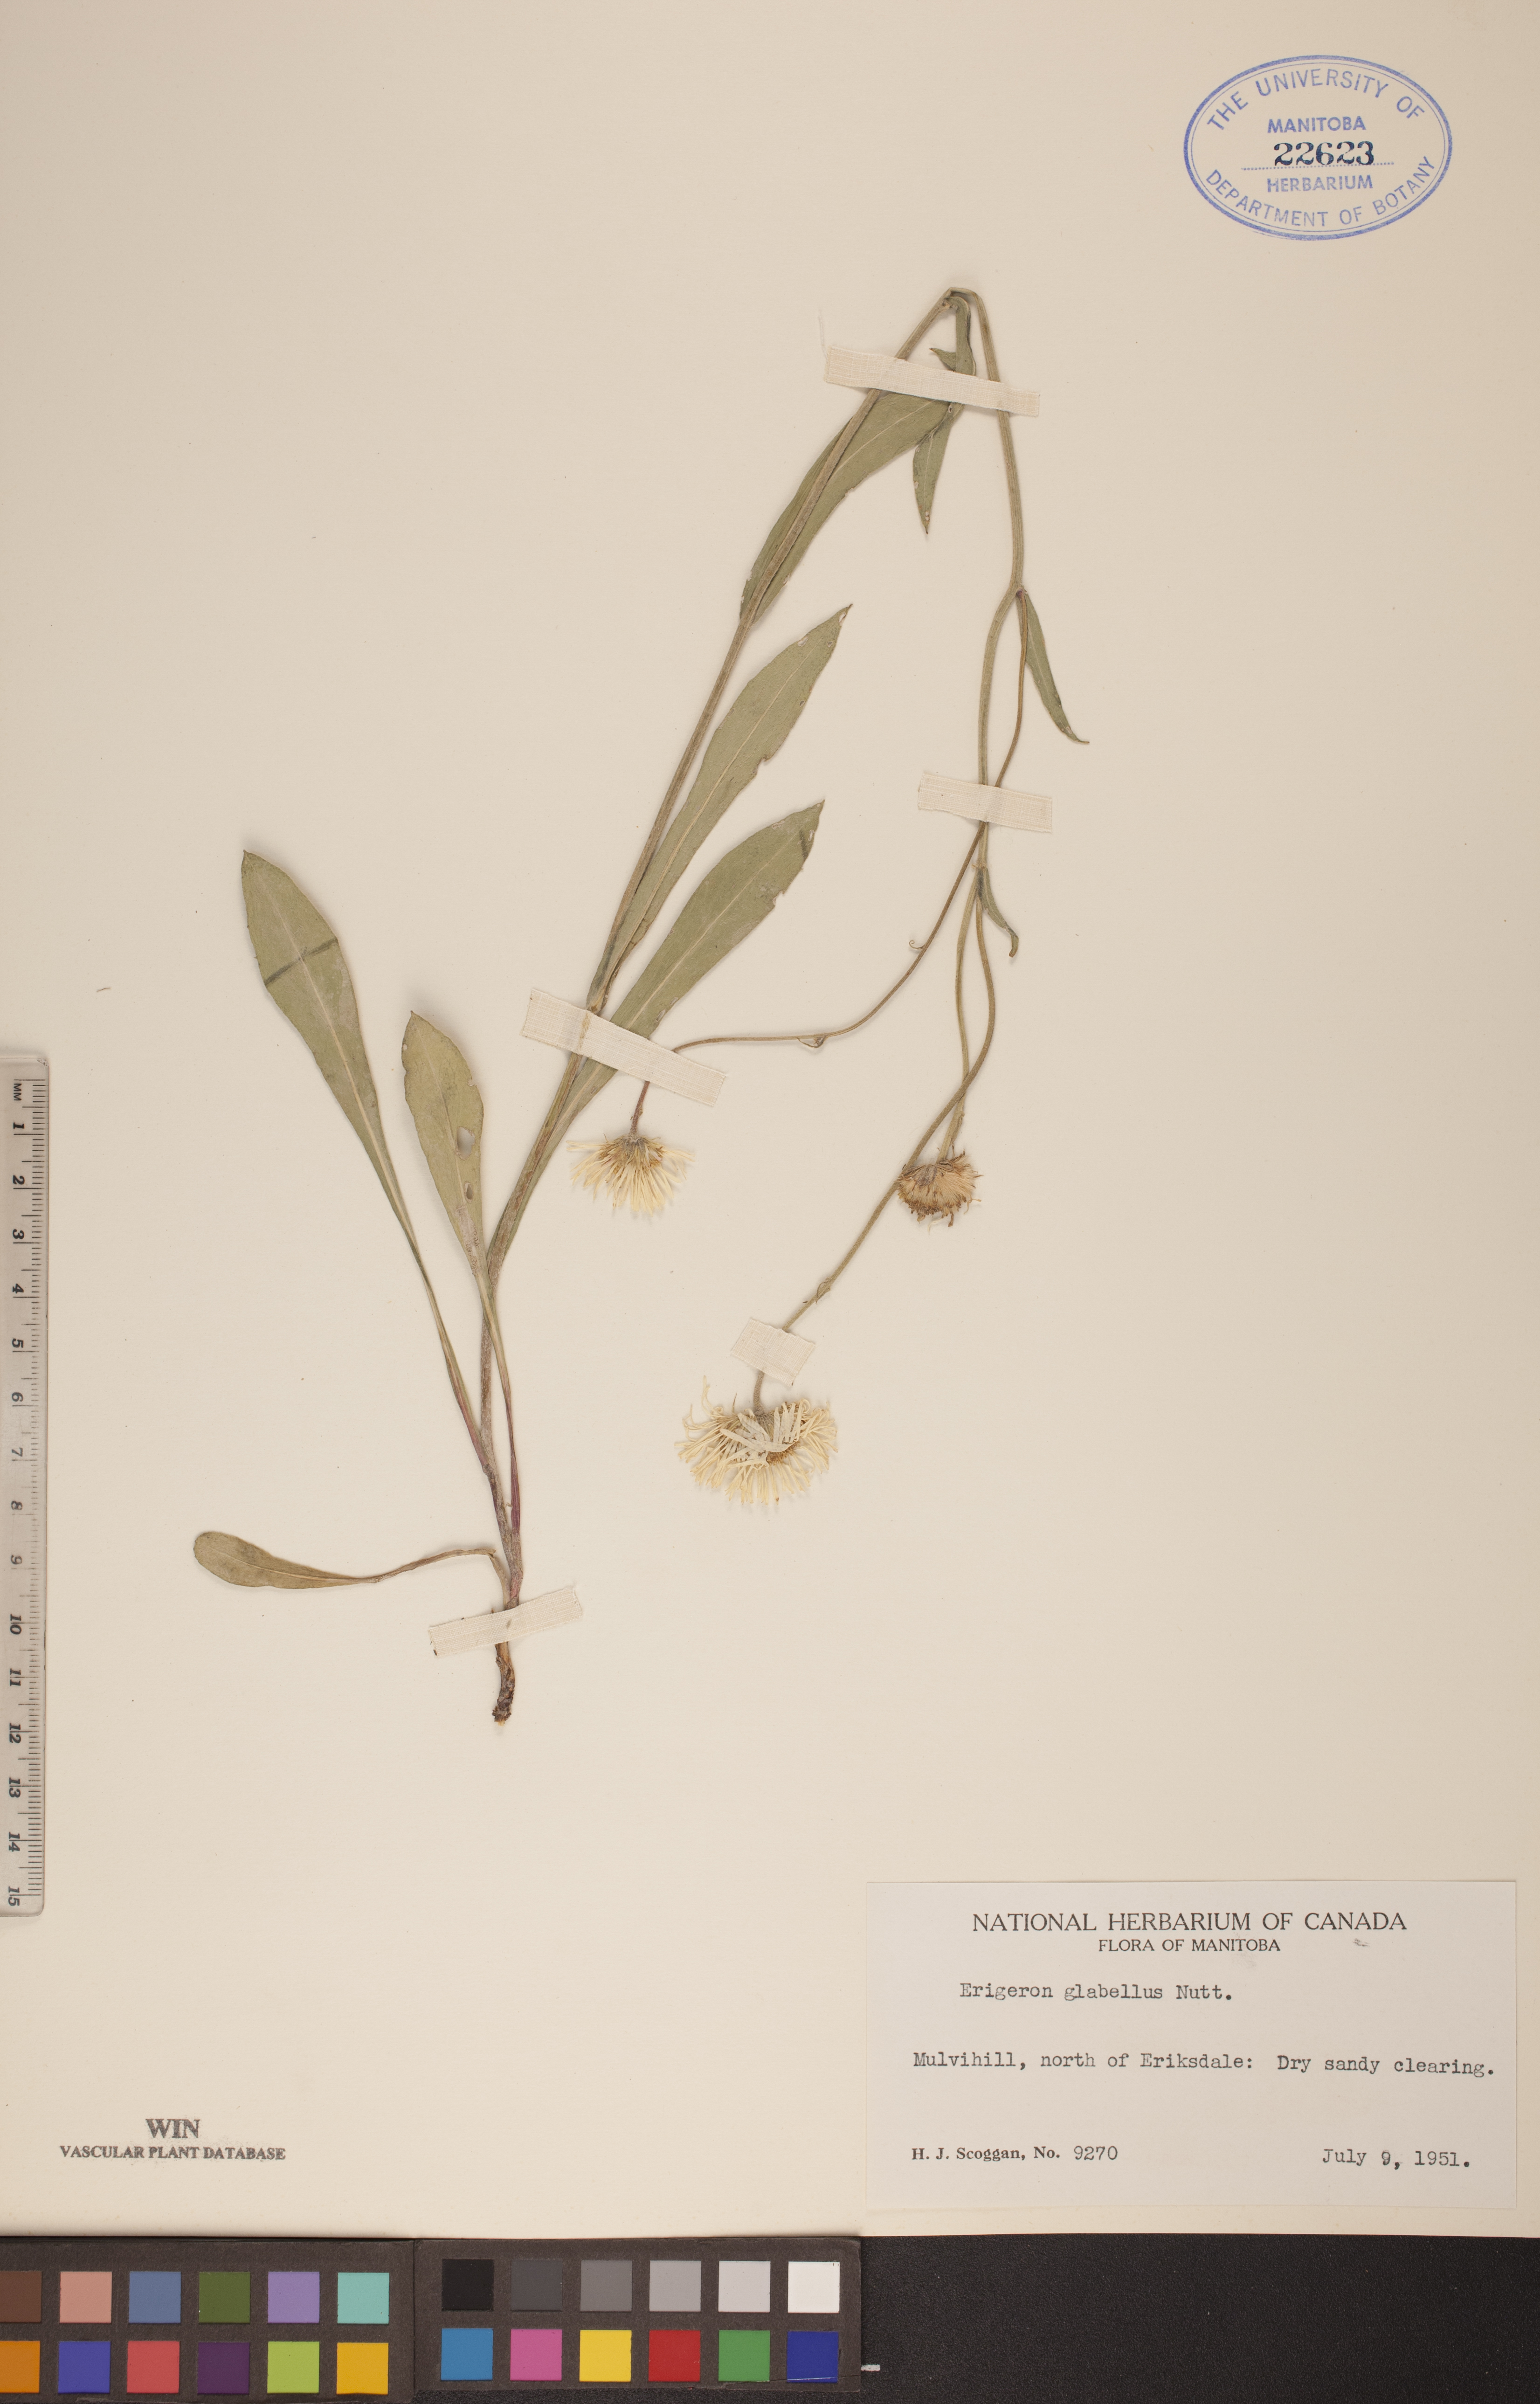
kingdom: Plantae
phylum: Tracheophyta
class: Magnoliopsida
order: Asterales
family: Asteraceae
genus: Erigeron
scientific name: Erigeron glabellus
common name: Smooth fleabane
